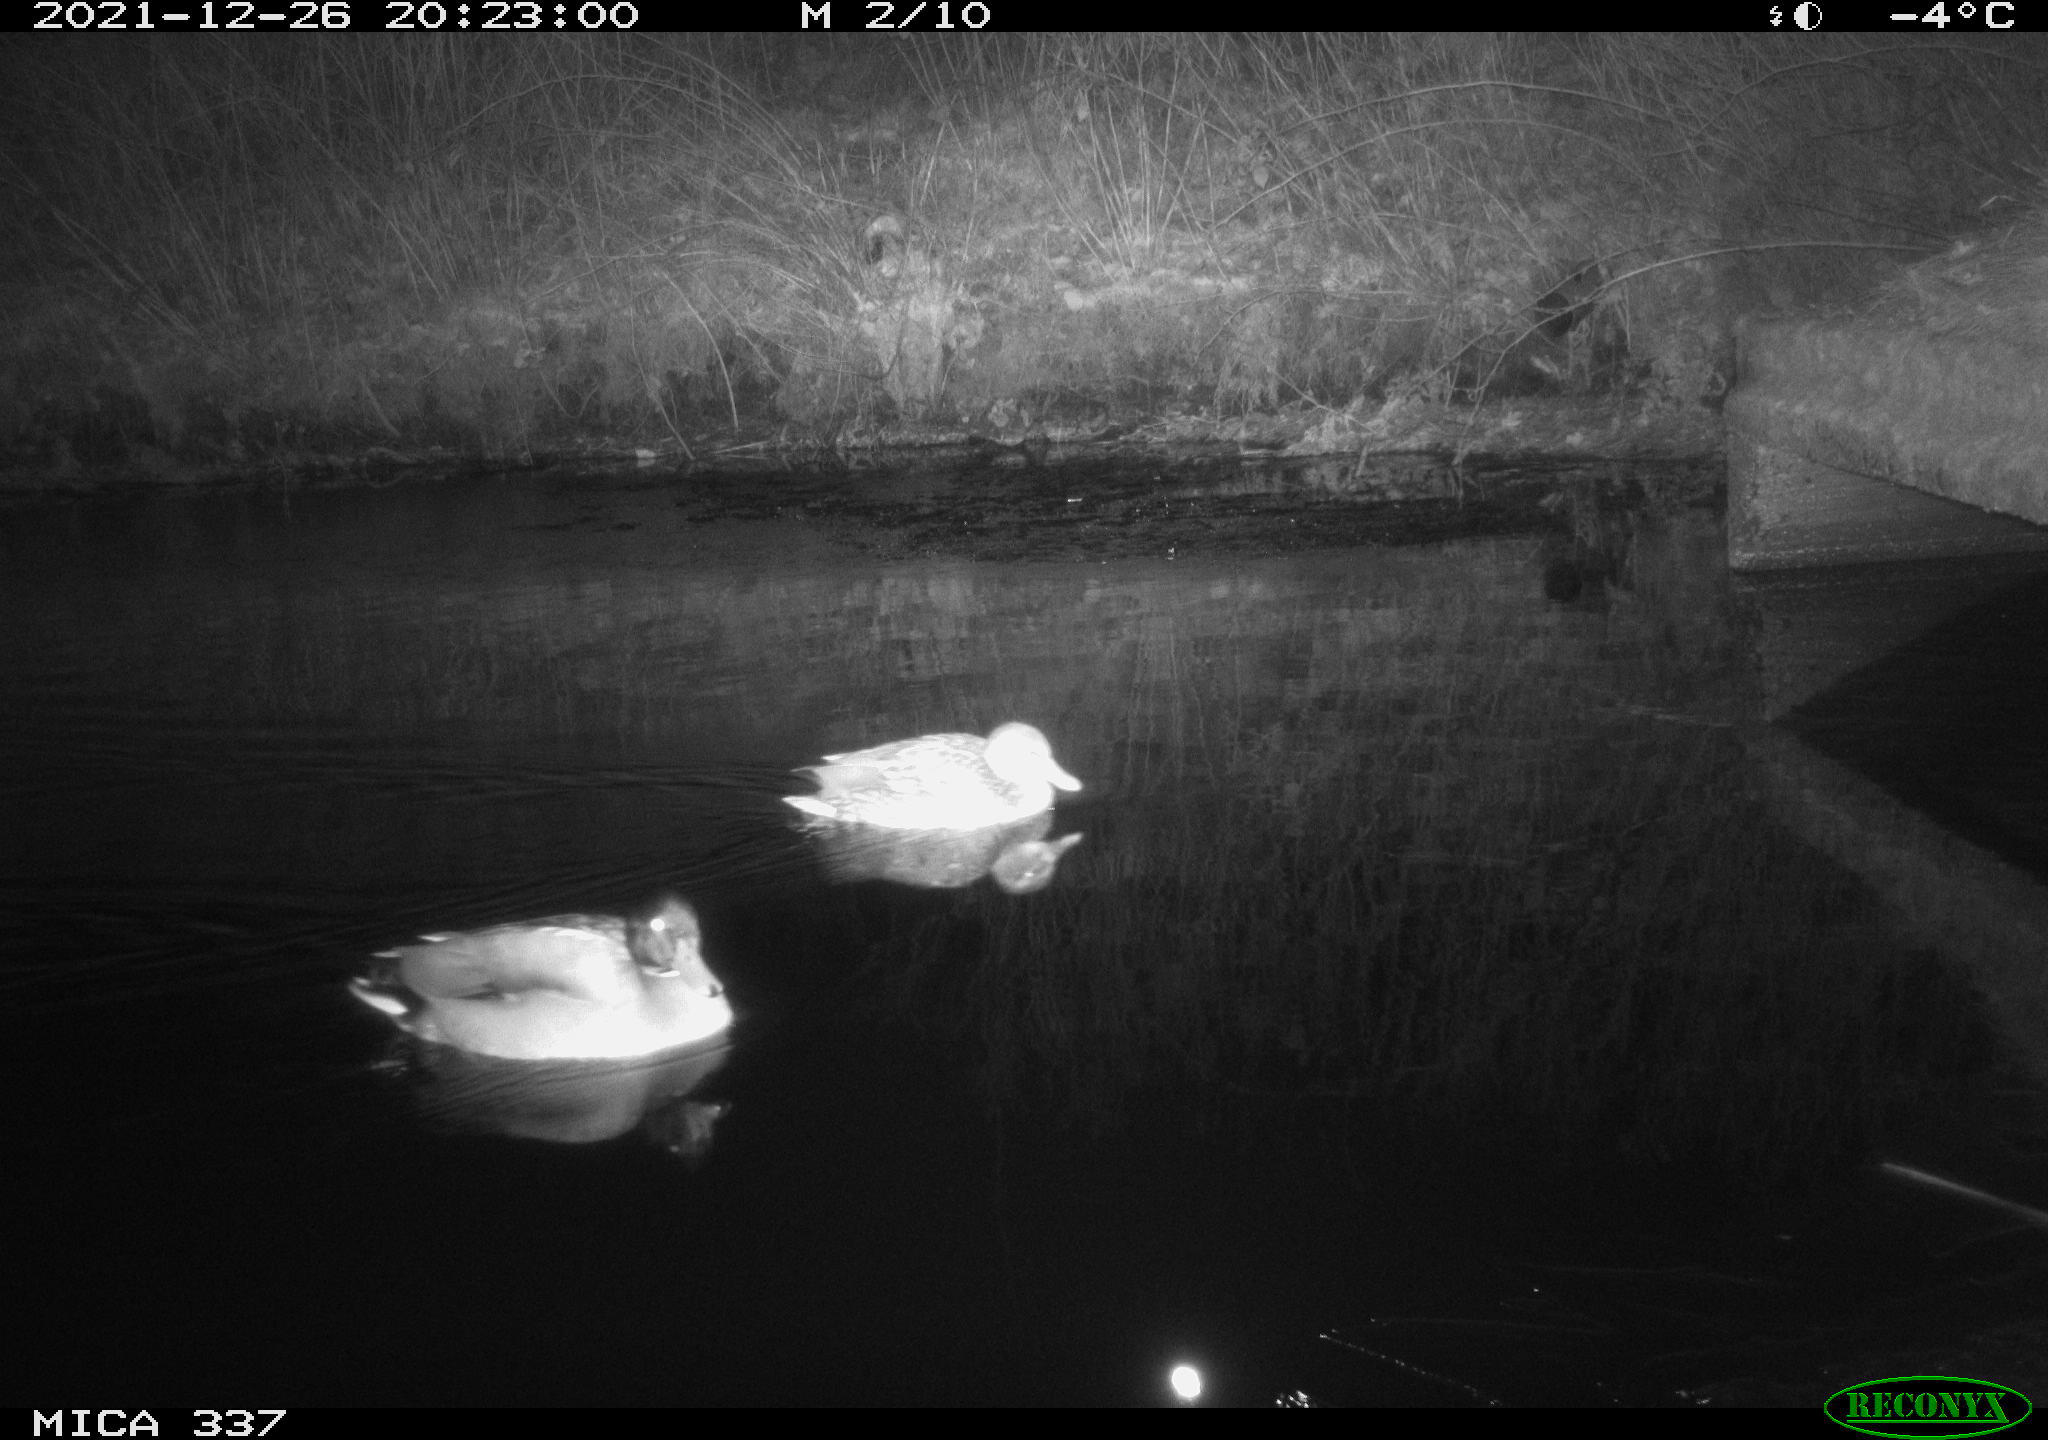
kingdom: Animalia
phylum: Chordata
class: Aves
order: Anseriformes
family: Anatidae
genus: Anas
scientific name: Anas platyrhynchos
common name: Mallard
